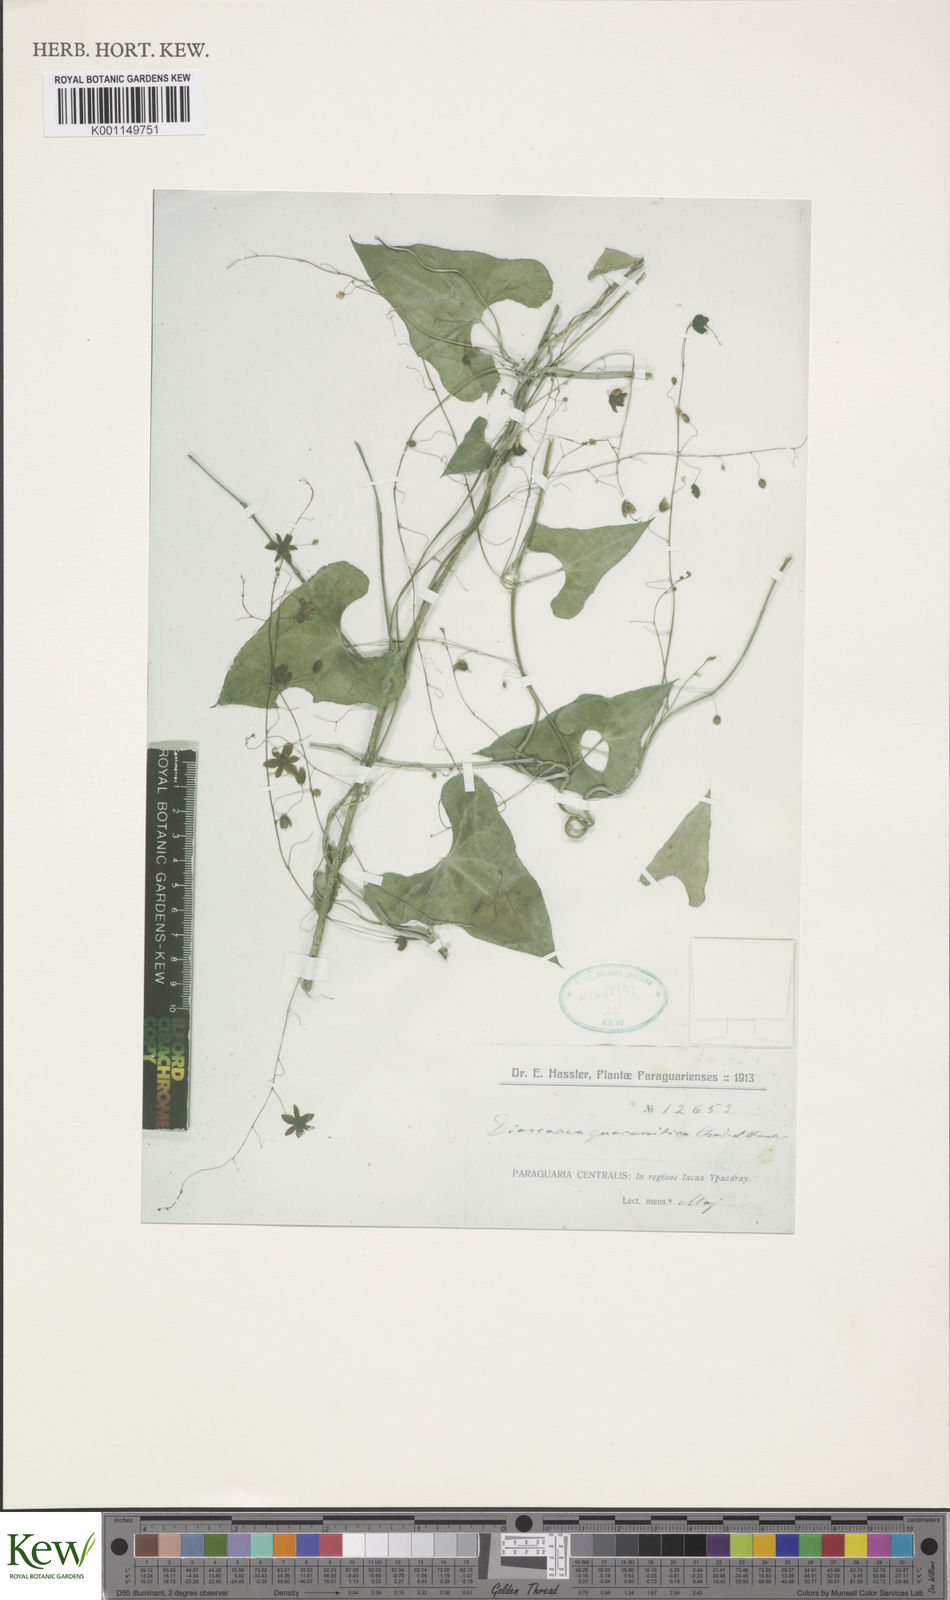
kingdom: Plantae
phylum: Tracheophyta
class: Liliopsida
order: Dioscoreales
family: Dioscoreaceae
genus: Dioscorea
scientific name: Dioscorea subhastata
